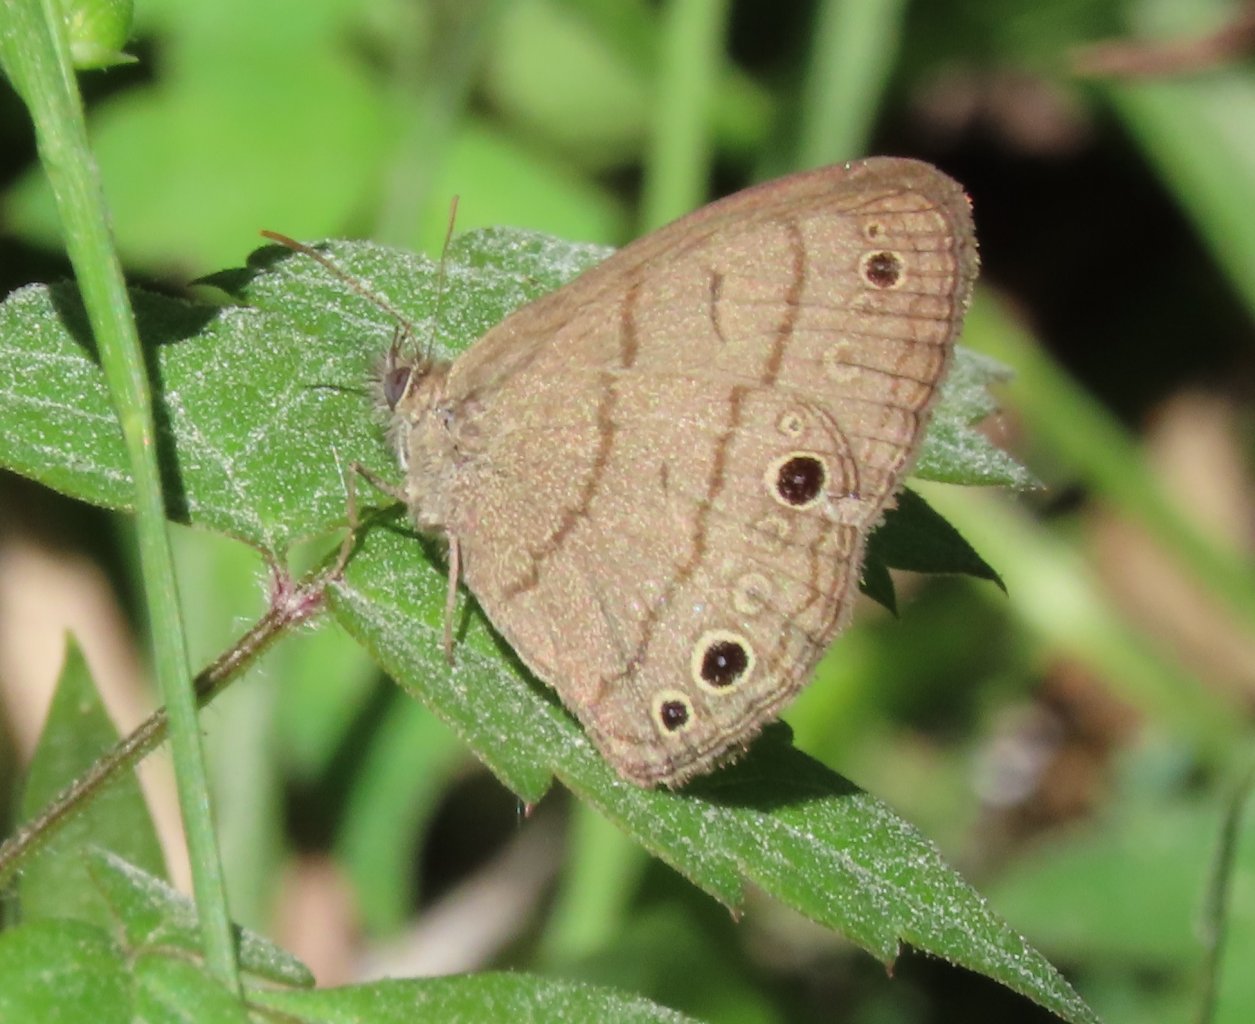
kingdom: Animalia
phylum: Arthropoda
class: Insecta
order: Lepidoptera
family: Nymphalidae
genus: Hermeuptychia
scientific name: Hermeuptychia intricata
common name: Intricate Satyr
